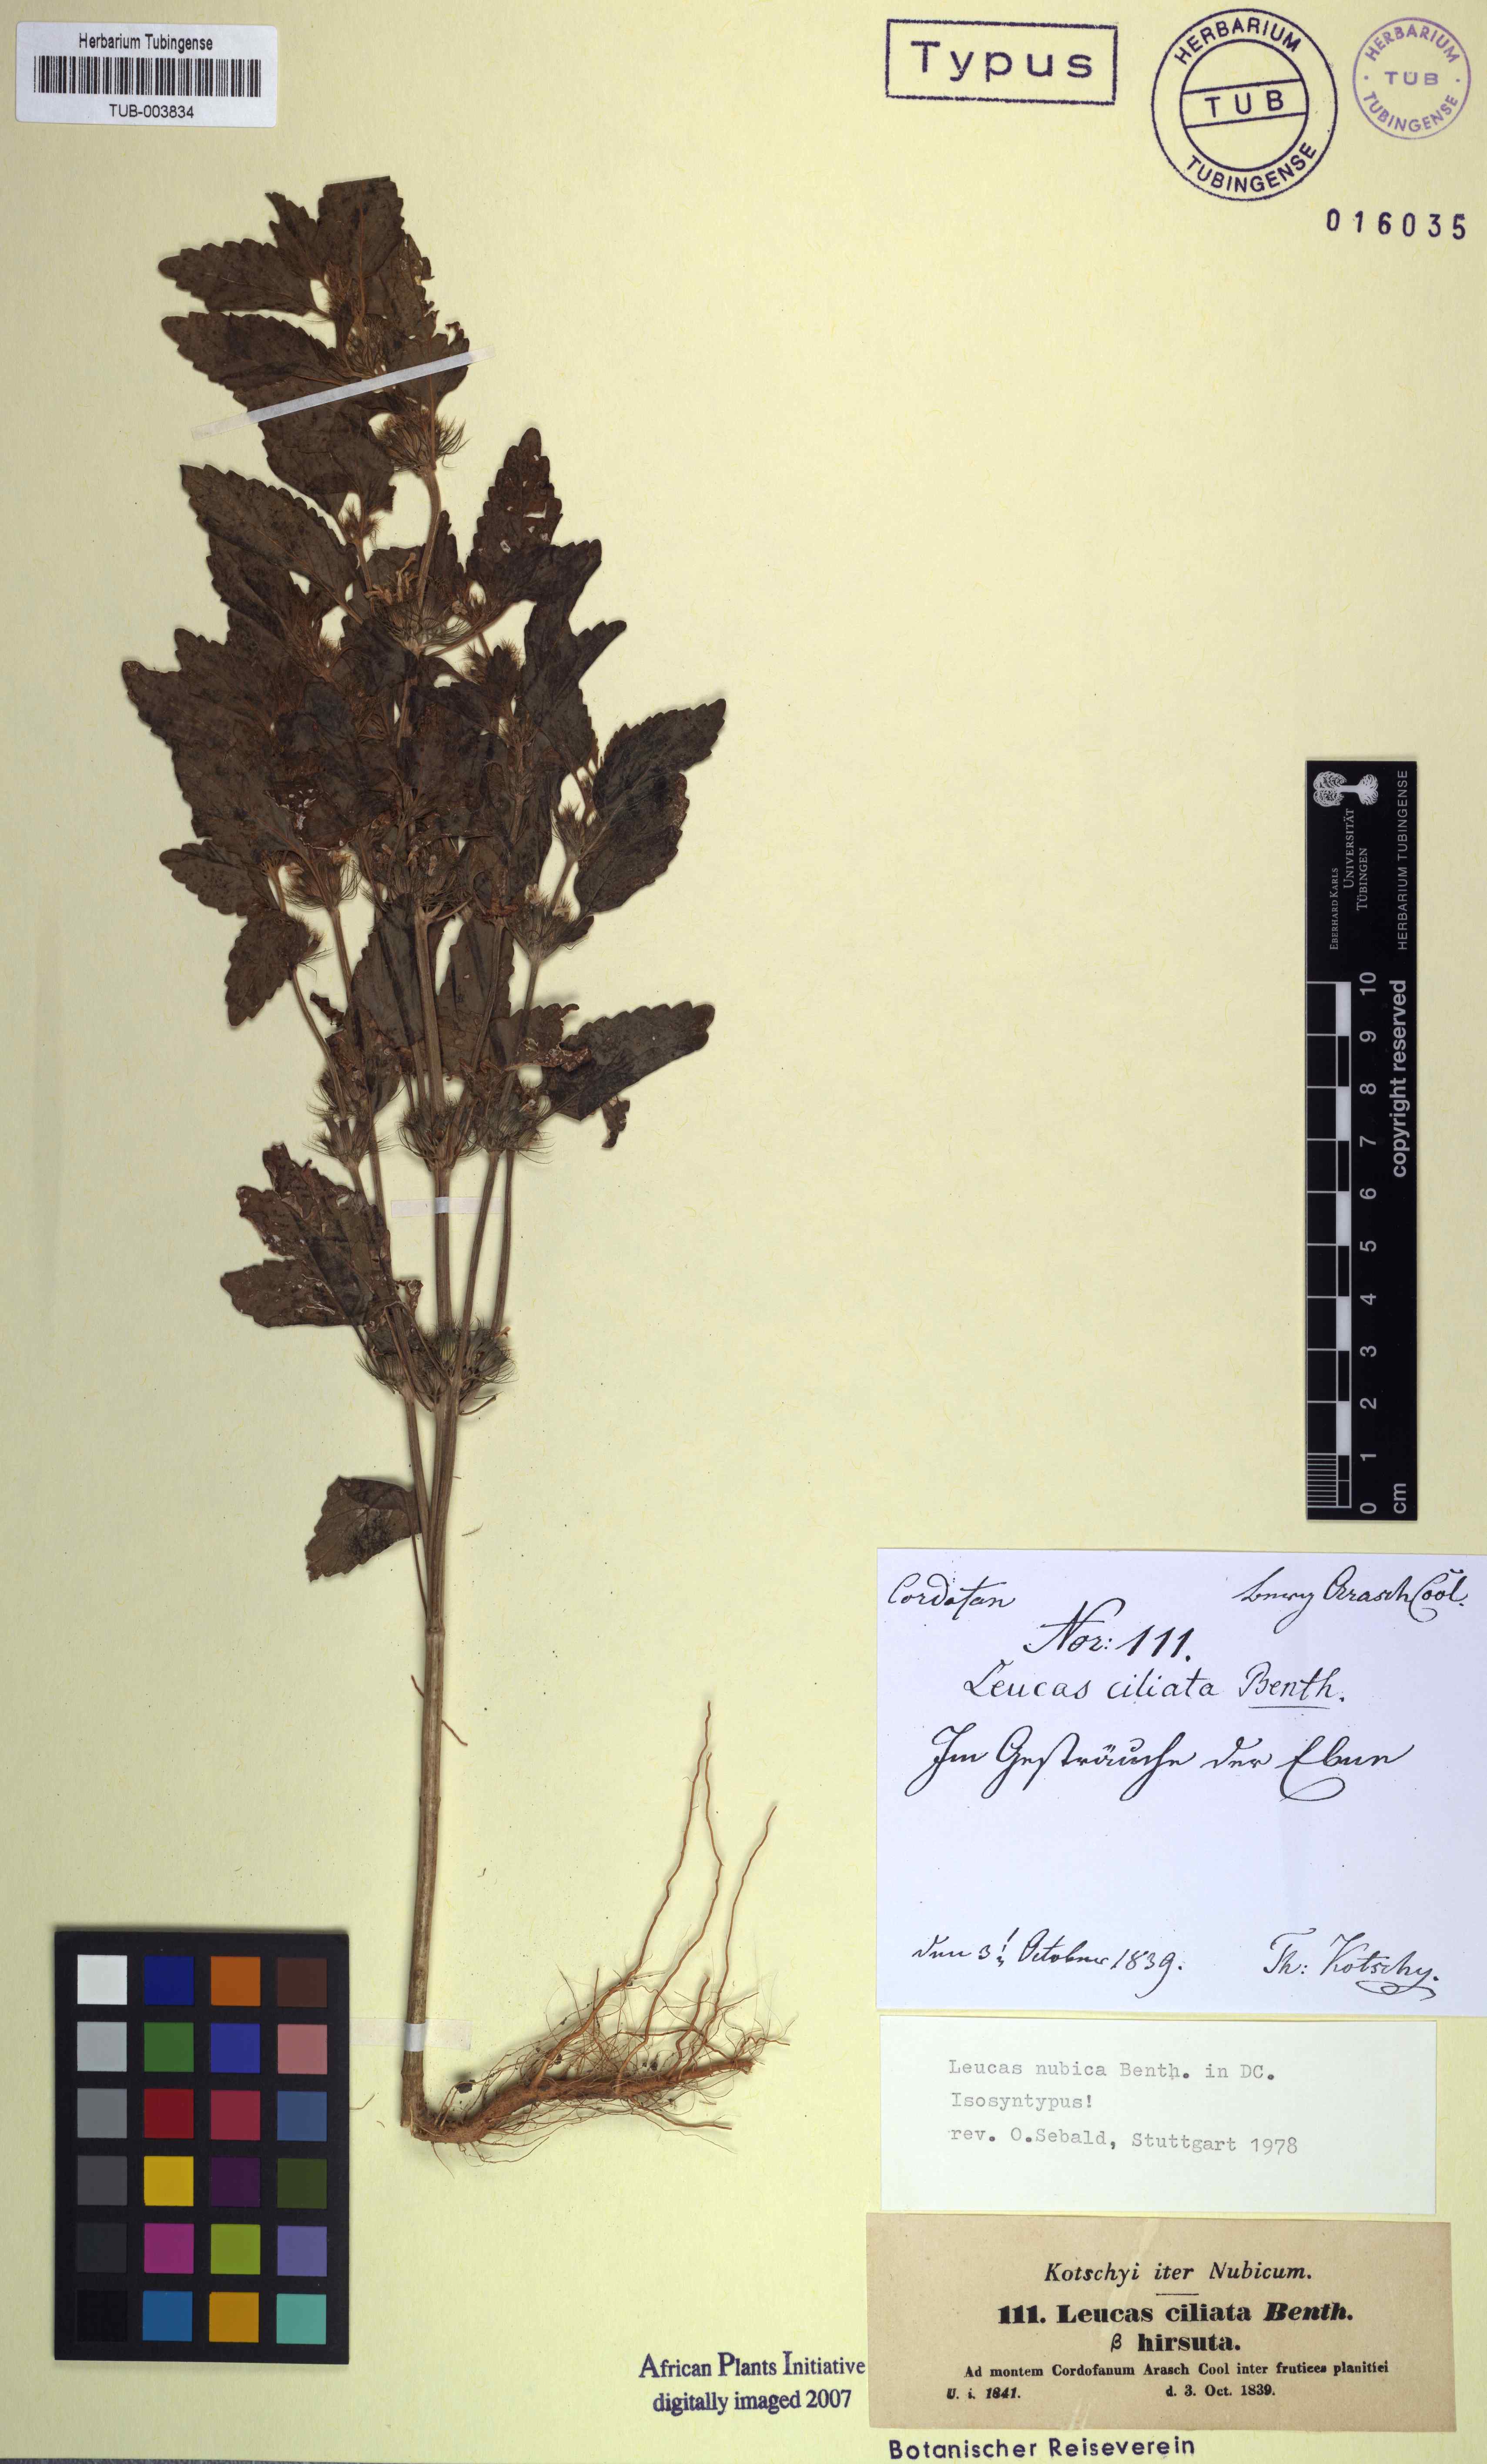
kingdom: Plantae
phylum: Tracheophyta
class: Magnoliopsida
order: Lamiales
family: Lamiaceae
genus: Leucas
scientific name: Leucas nubica
